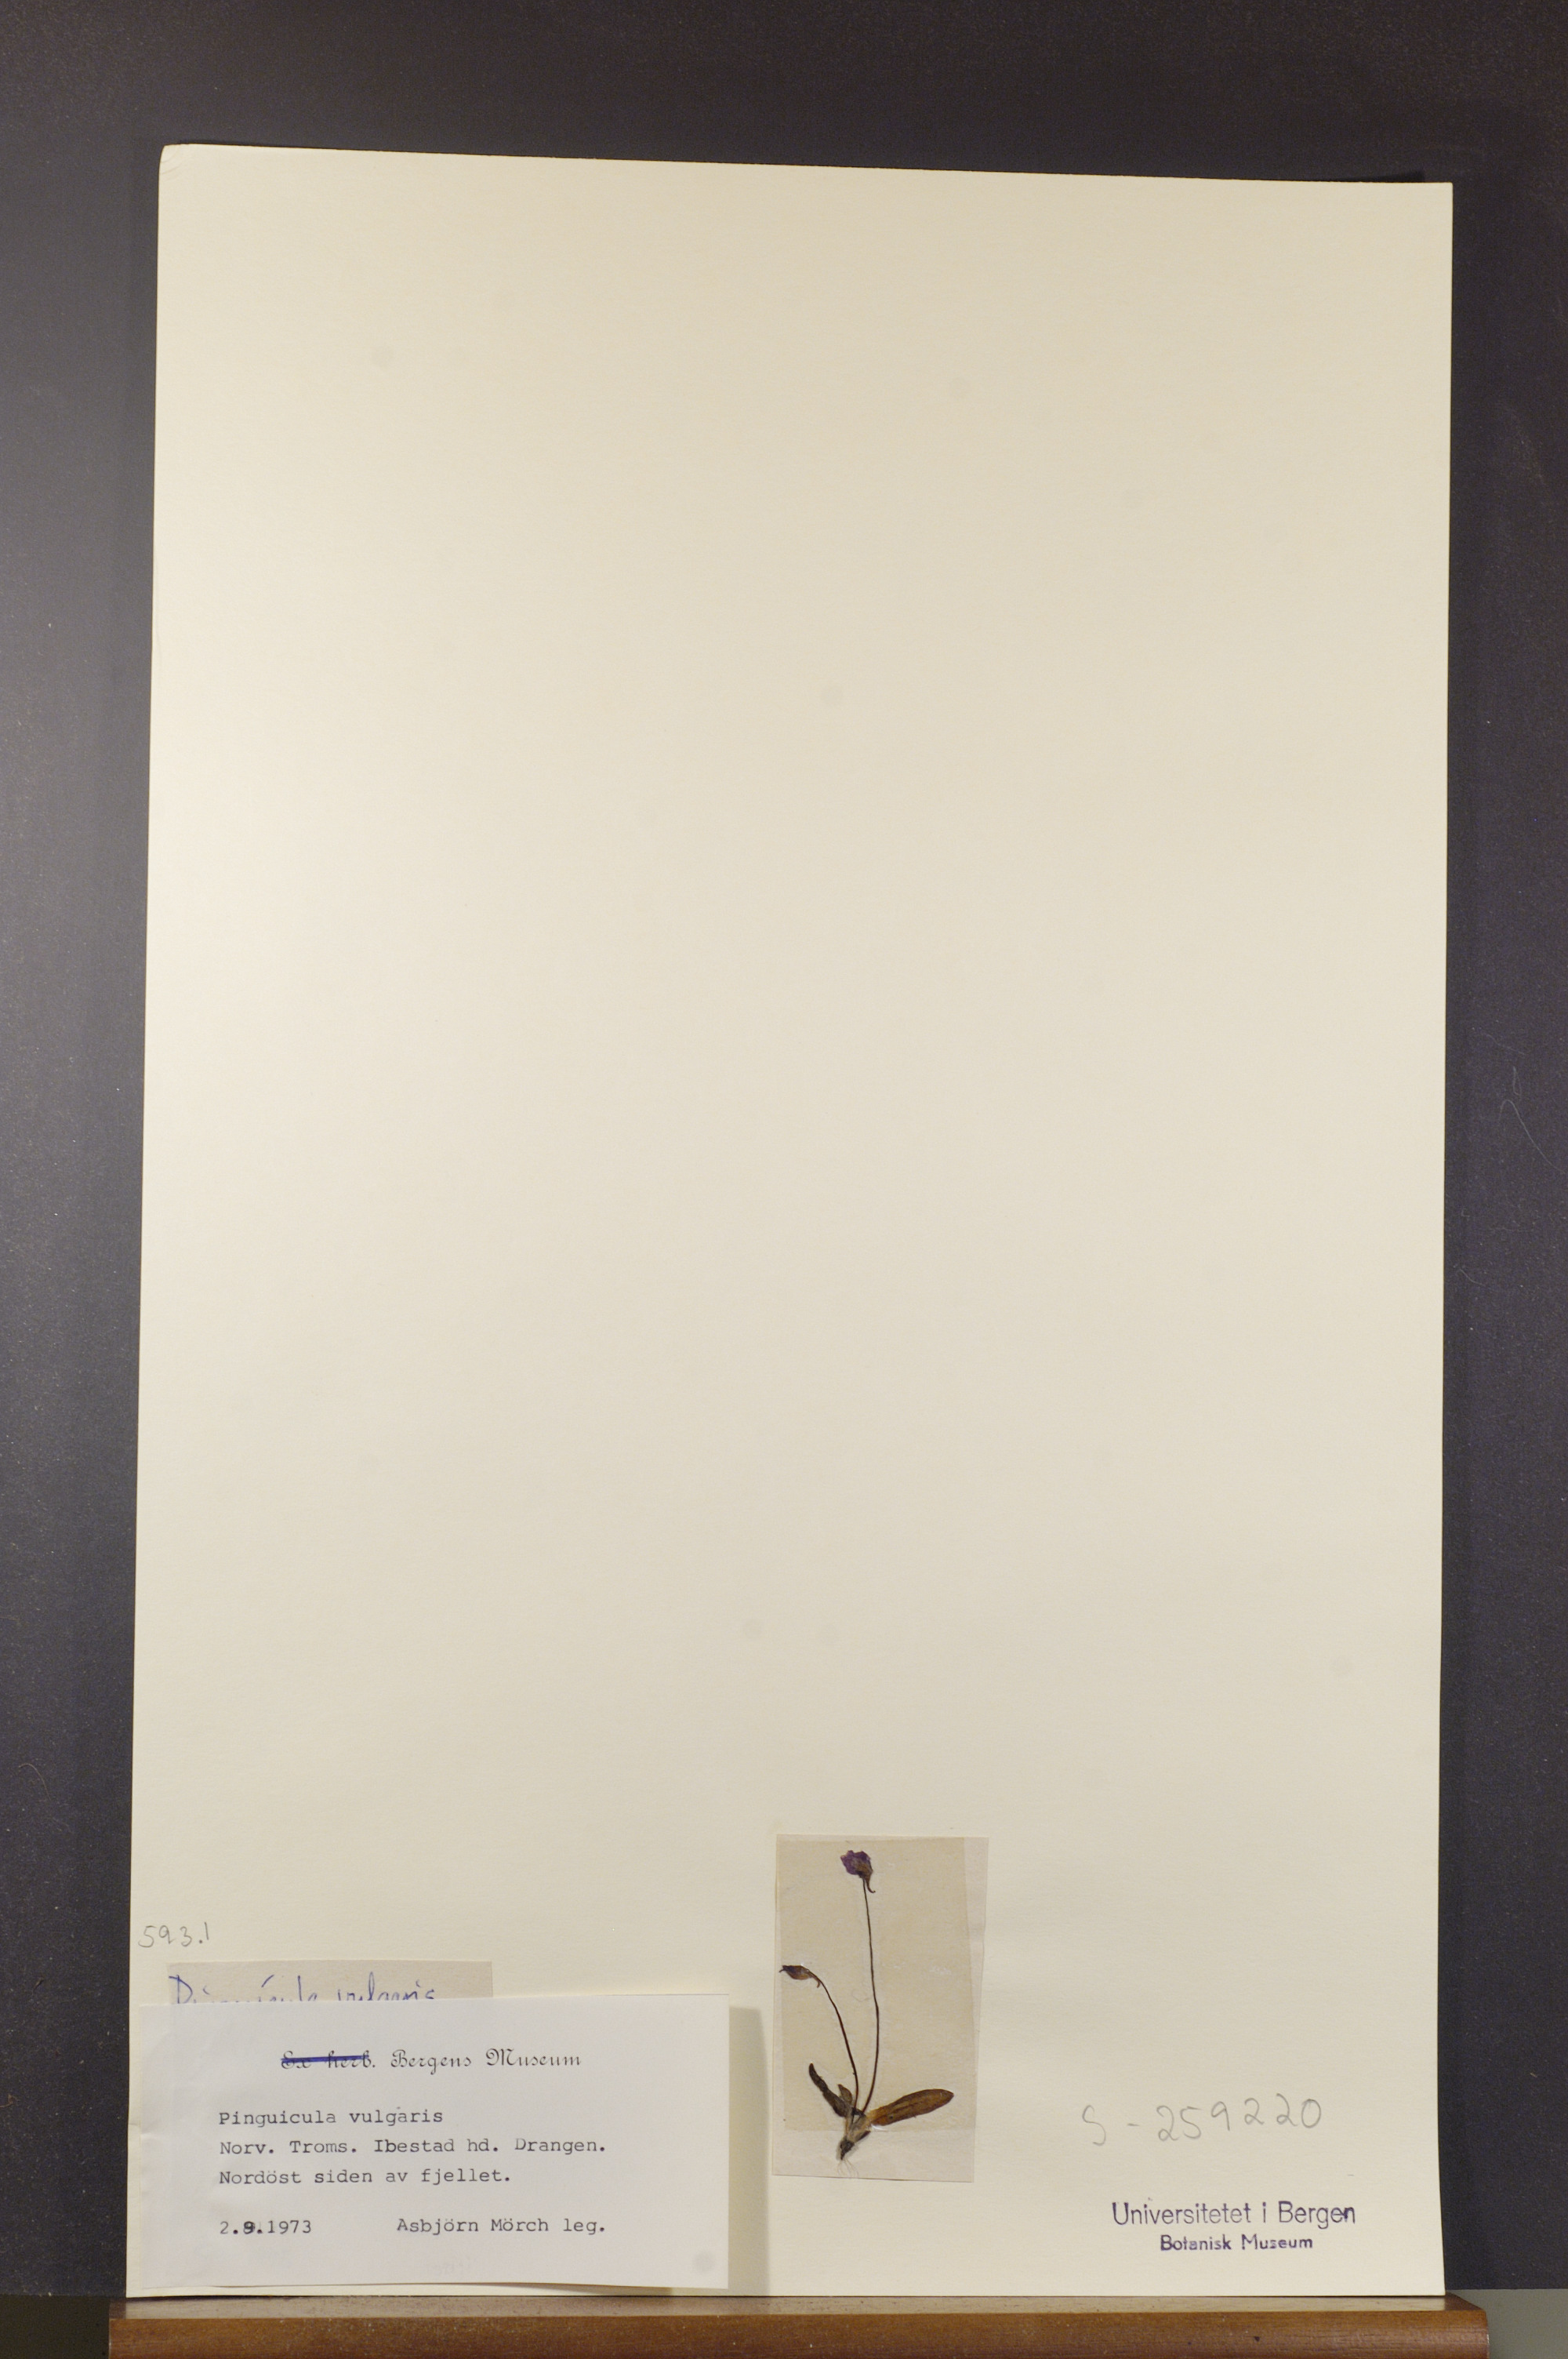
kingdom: Plantae
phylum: Tracheophyta
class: Magnoliopsida
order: Lamiales
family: Lentibulariaceae
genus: Pinguicula
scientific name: Pinguicula vulgaris
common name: Common butterwort
